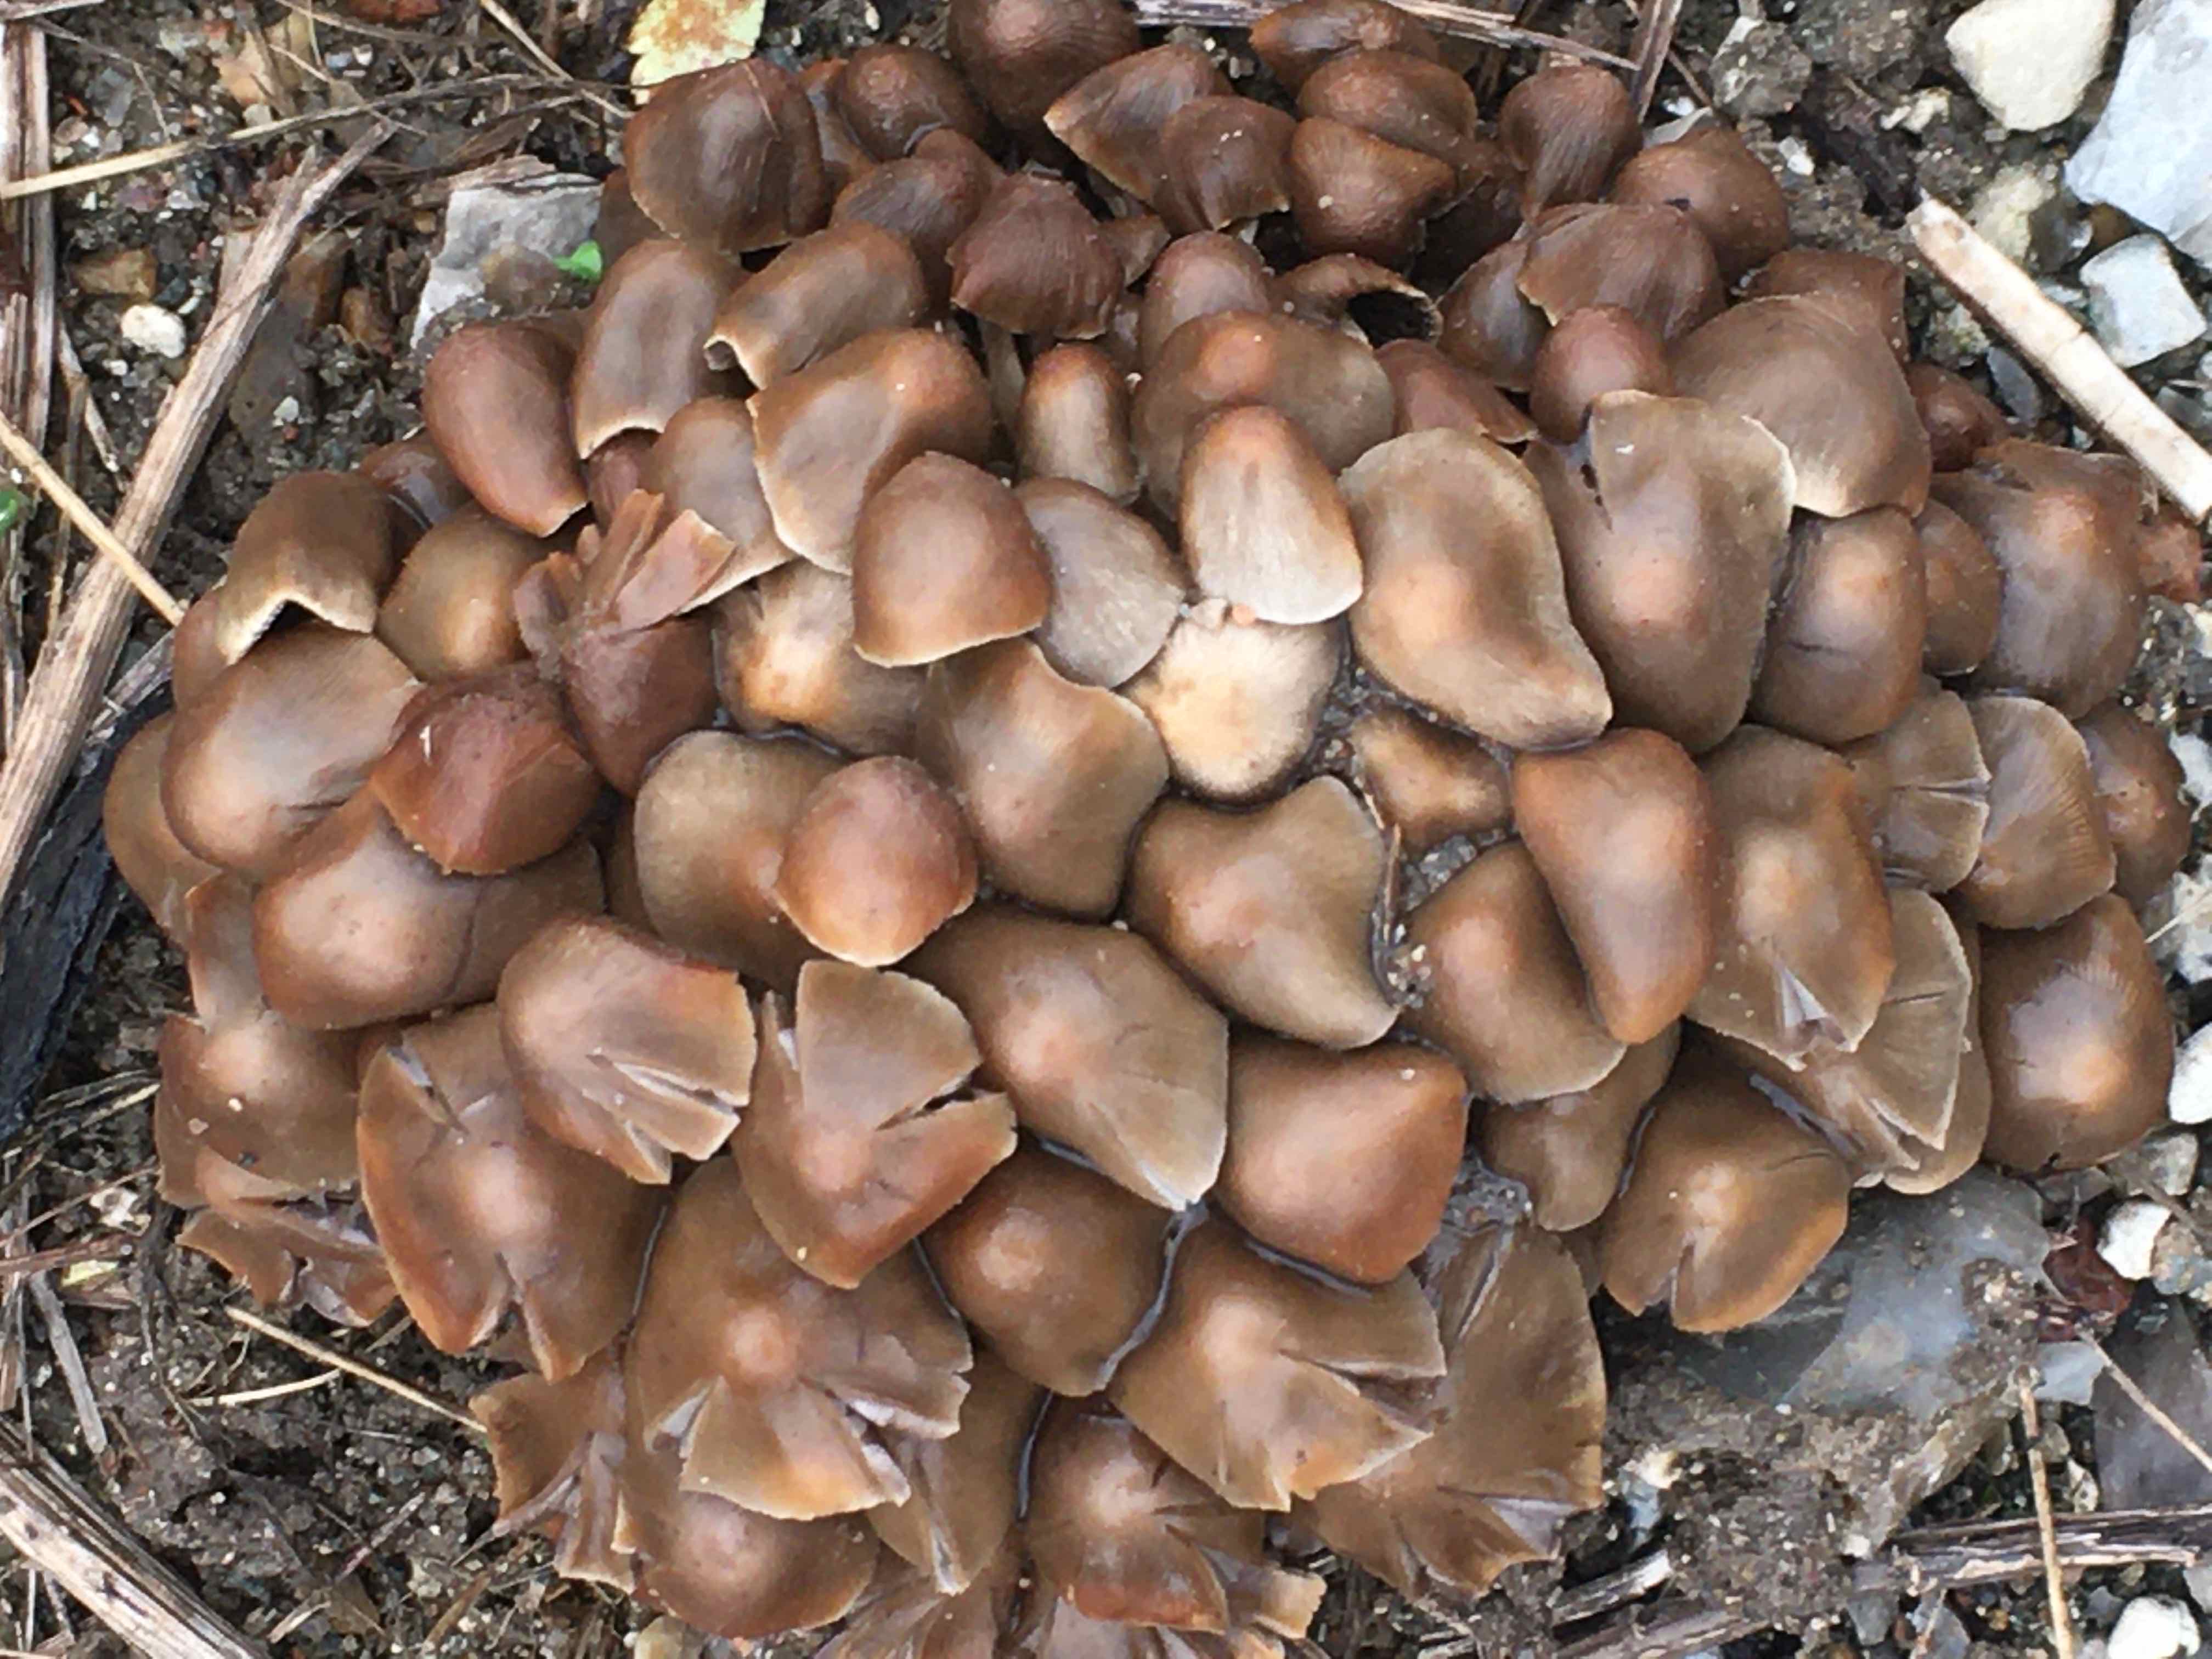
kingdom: Fungi
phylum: Basidiomycota
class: Agaricomycetes
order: Agaricales
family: Psathyrellaceae
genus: Britzelmayria
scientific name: Britzelmayria multipedata
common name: knippe-mørkhat
